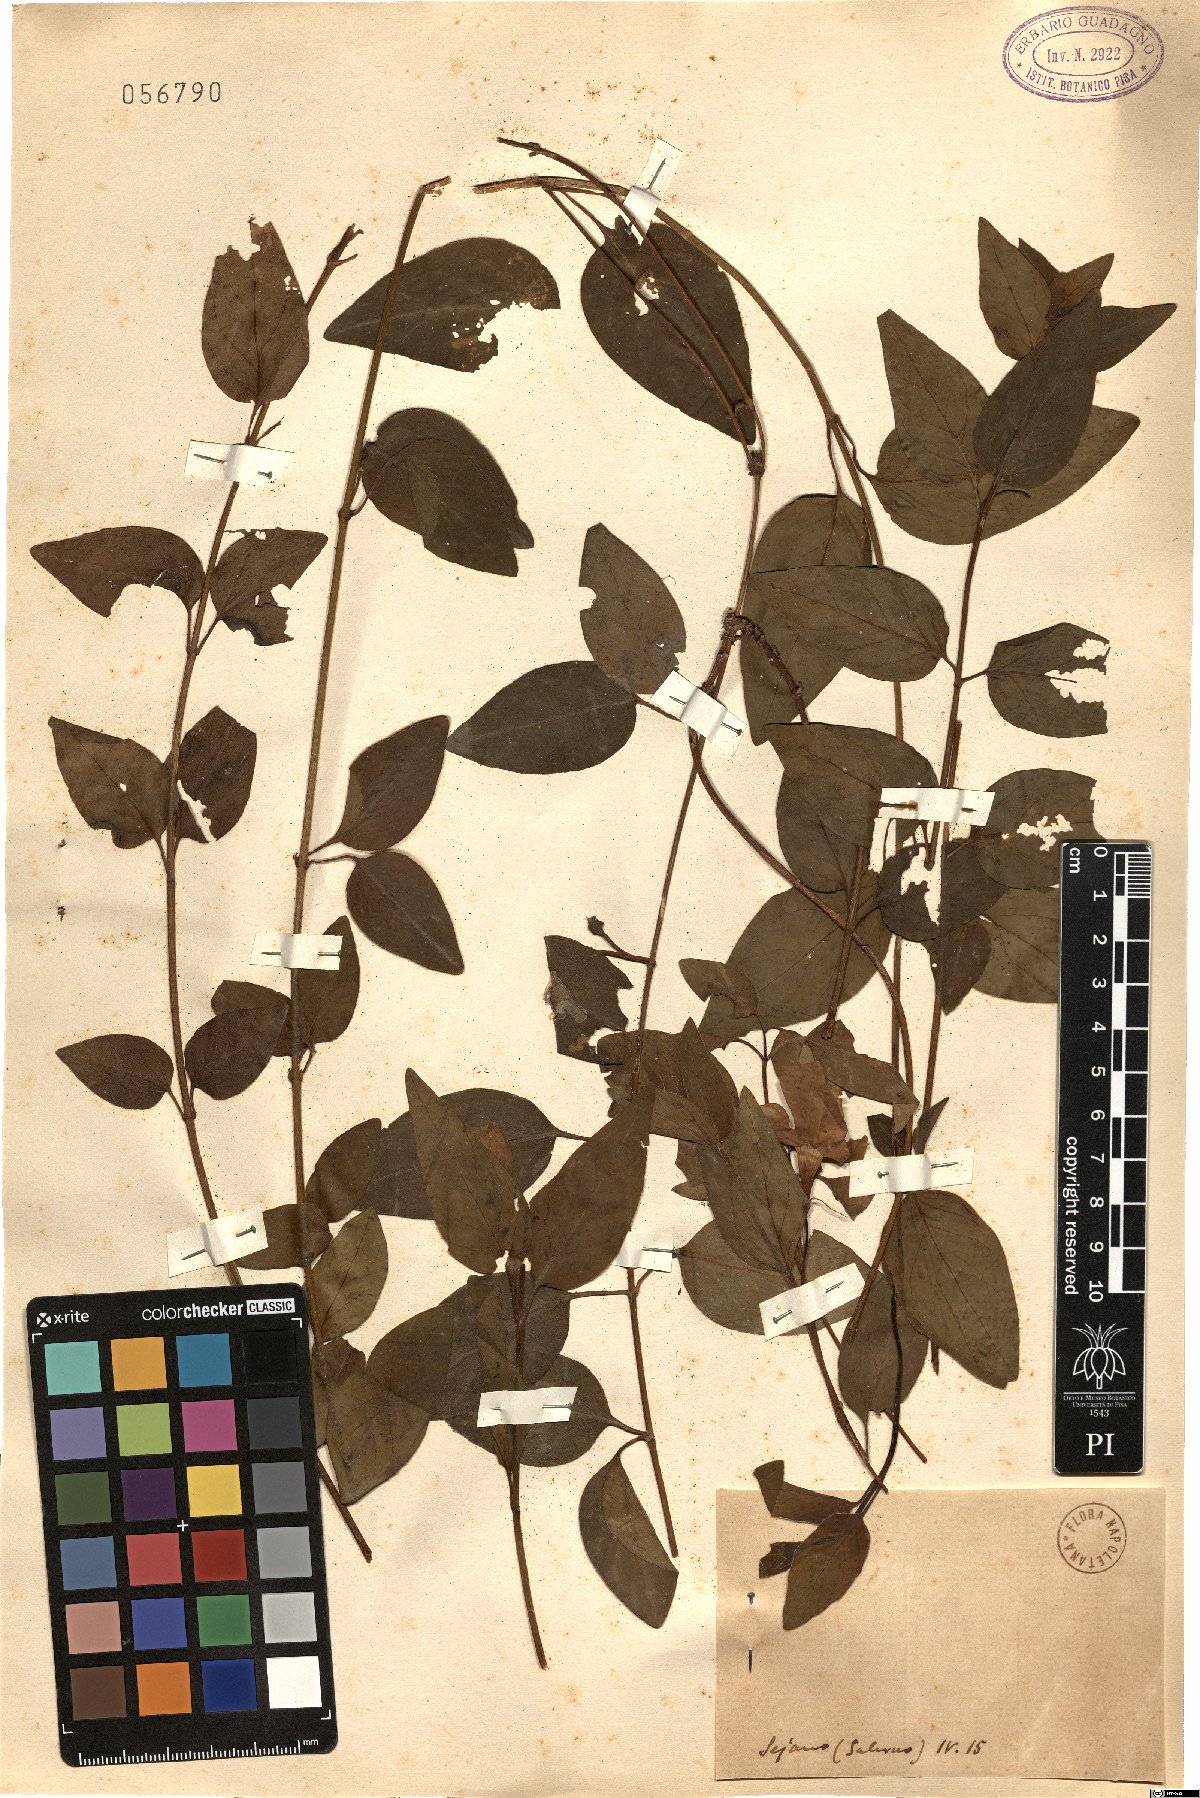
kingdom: Plantae
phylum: Tracheophyta
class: Magnoliopsida
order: Gentianales
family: Apocynaceae
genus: Voacanga
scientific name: Voacanga
